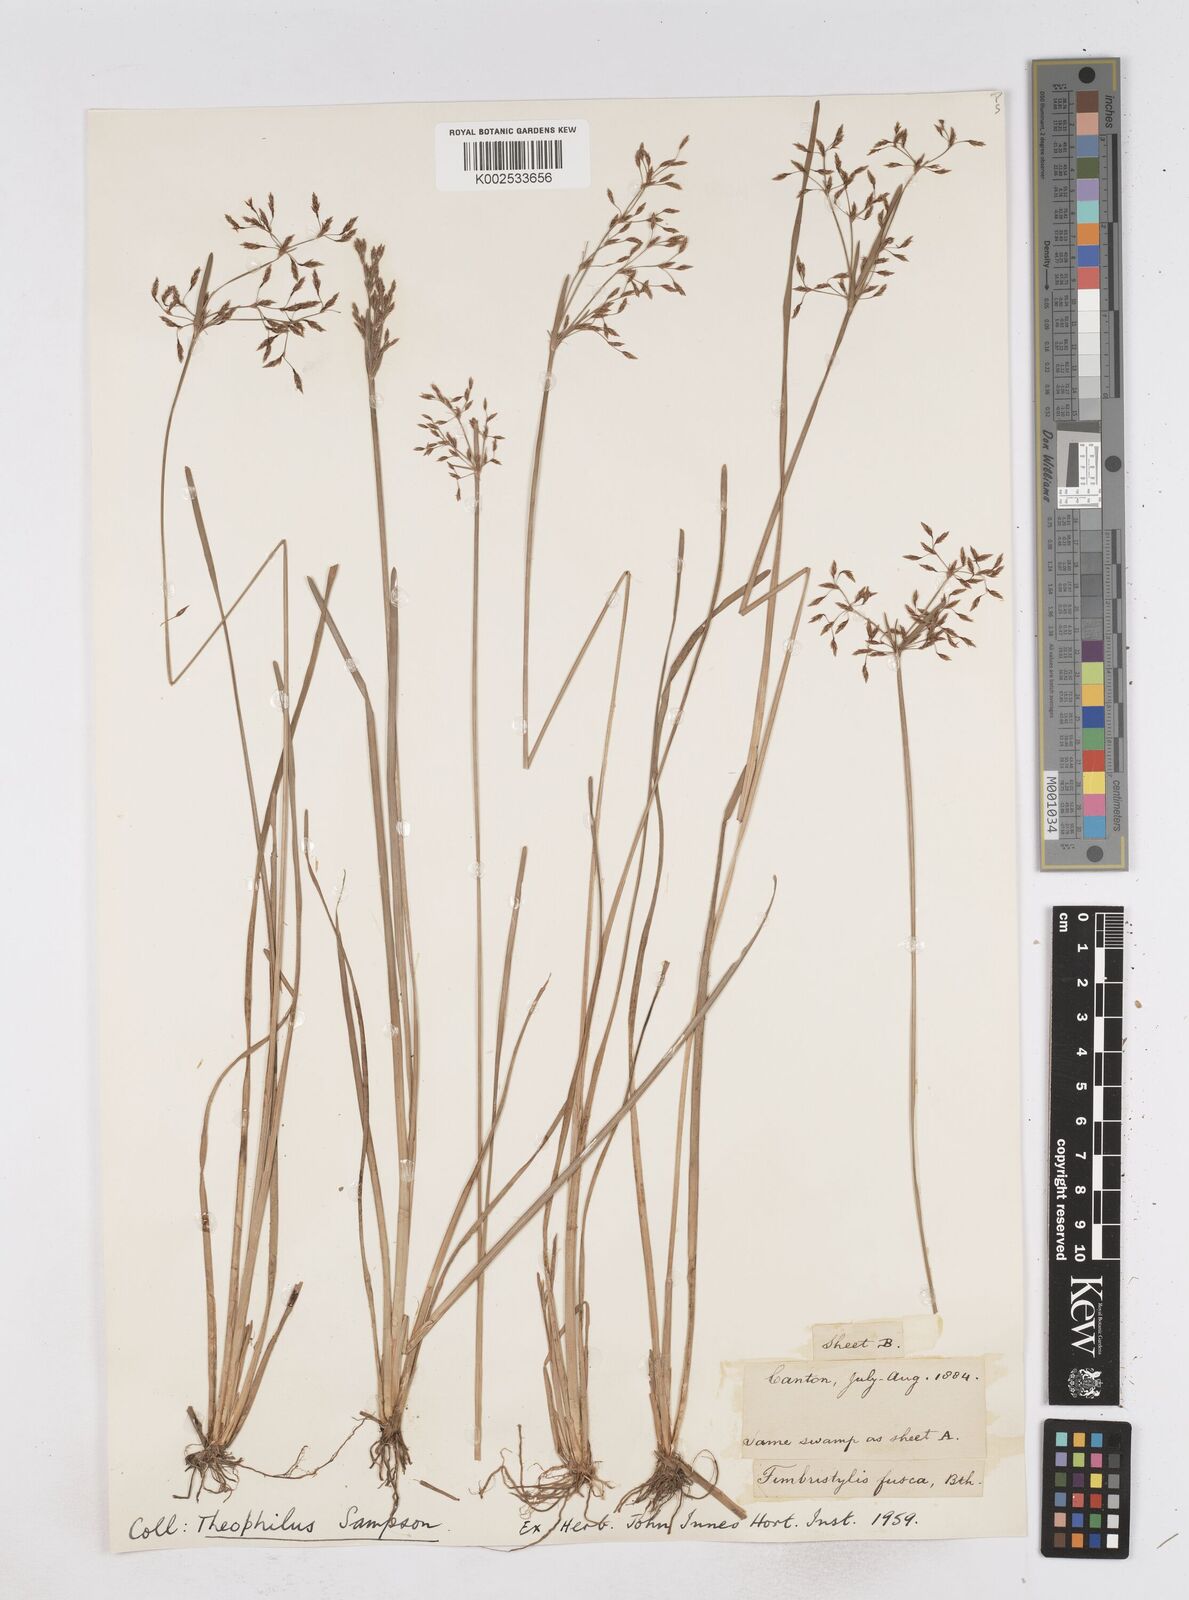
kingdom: Plantae
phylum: Tracheophyta
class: Liliopsida
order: Poales
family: Cyperaceae
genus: Fimbristylis
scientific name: Fimbristylis fusca
